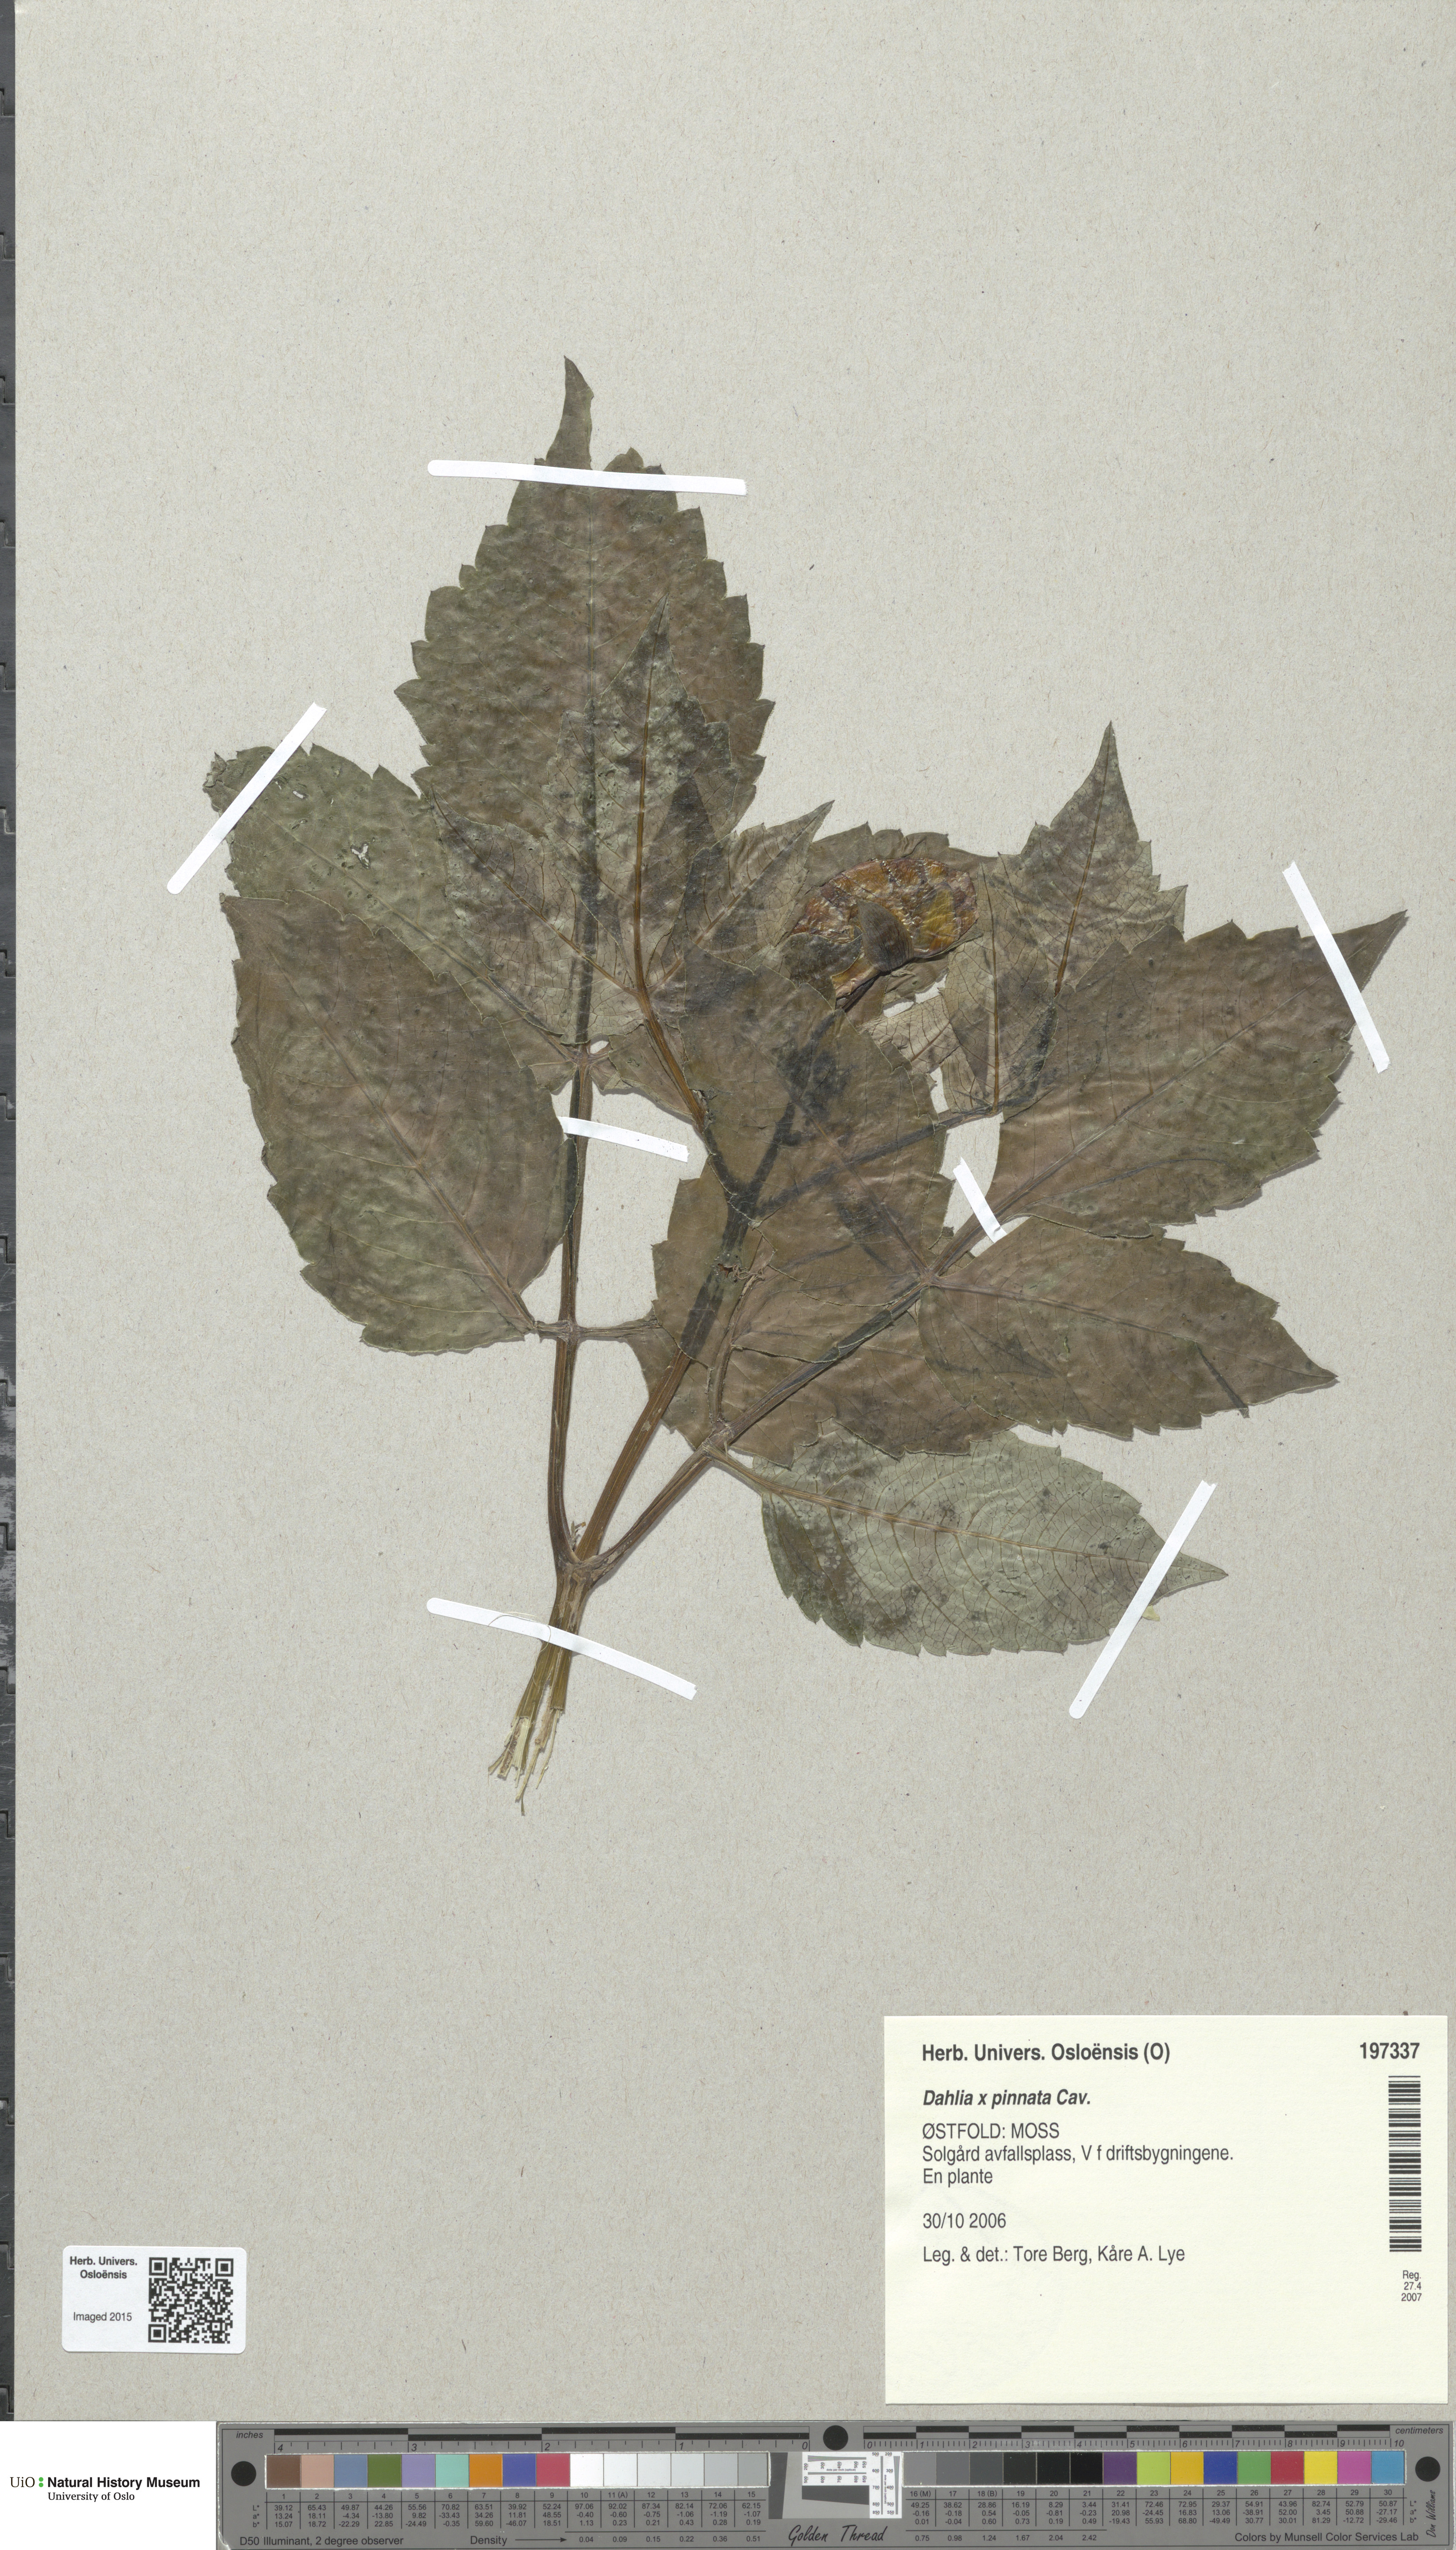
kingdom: Plantae
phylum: Tracheophyta
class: Magnoliopsida
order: Asterales
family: Asteraceae
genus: Dahlia
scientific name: Dahlia pinnata
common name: Dahlia
